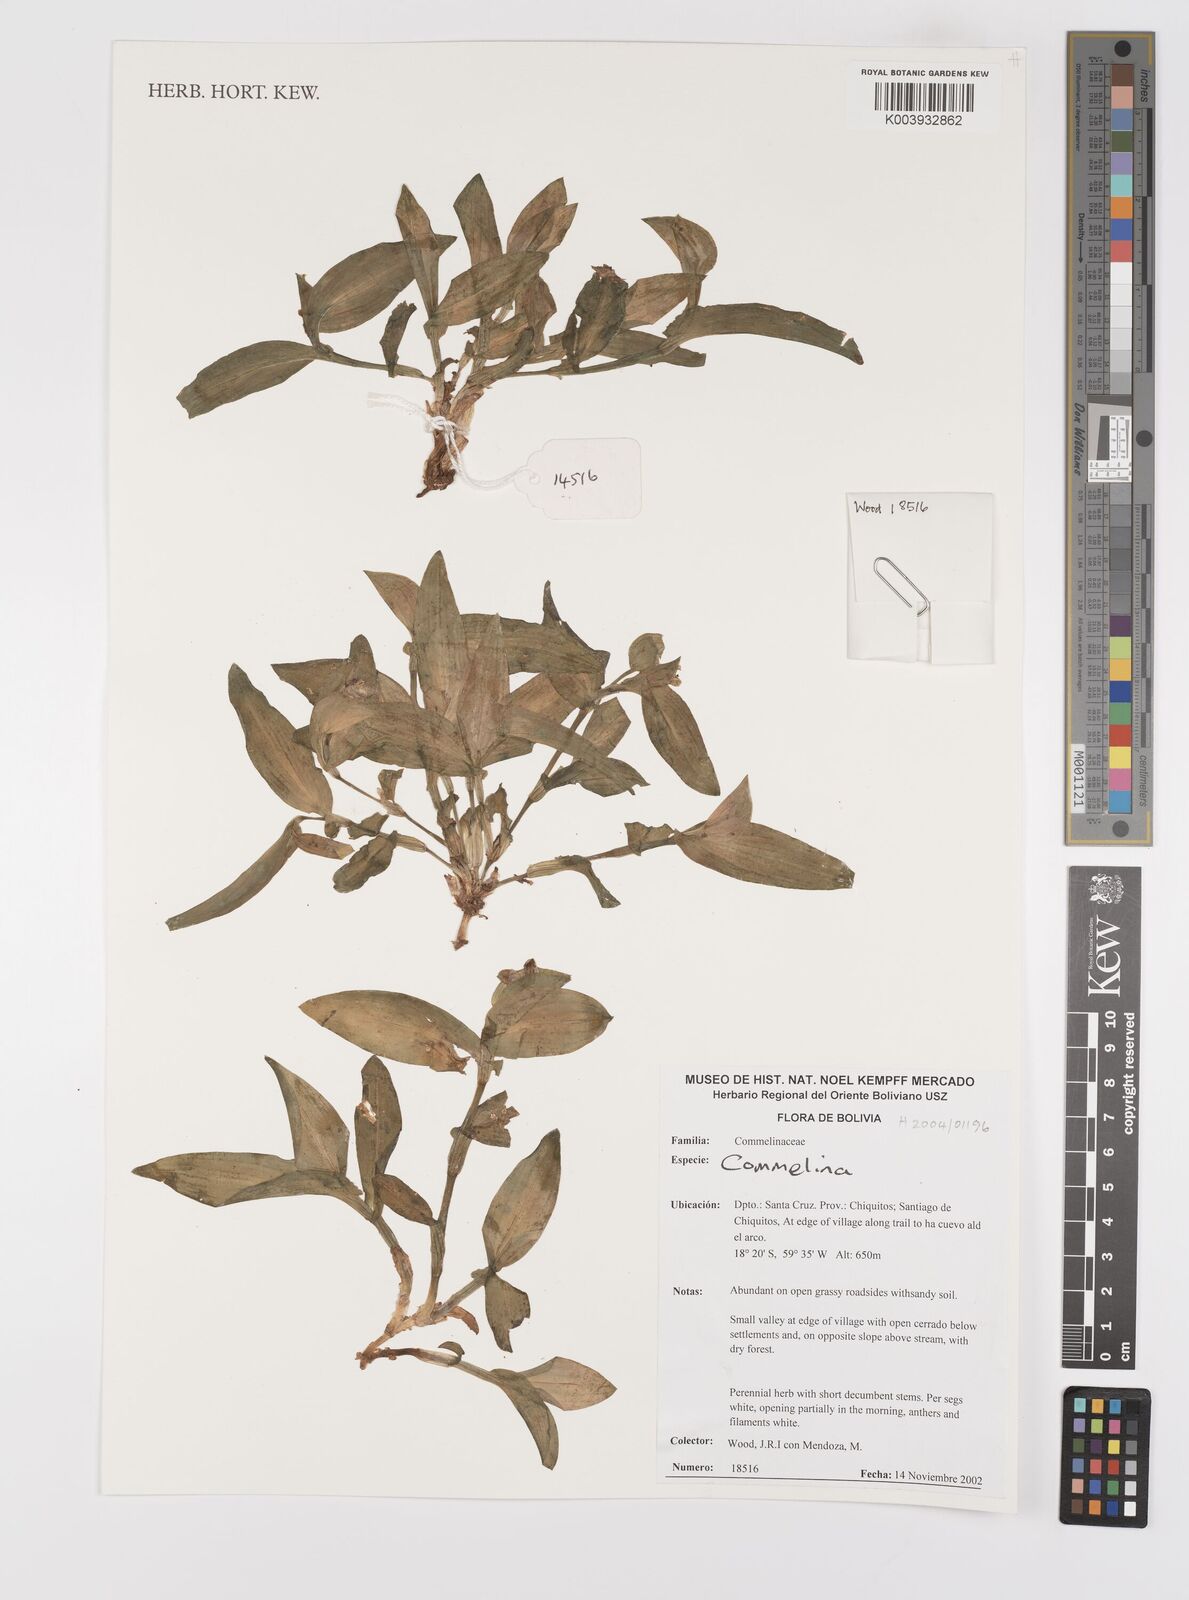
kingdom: Plantae
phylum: Tracheophyta
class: Liliopsida
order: Commelinales
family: Commelinaceae
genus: Commelina
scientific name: Commelina
